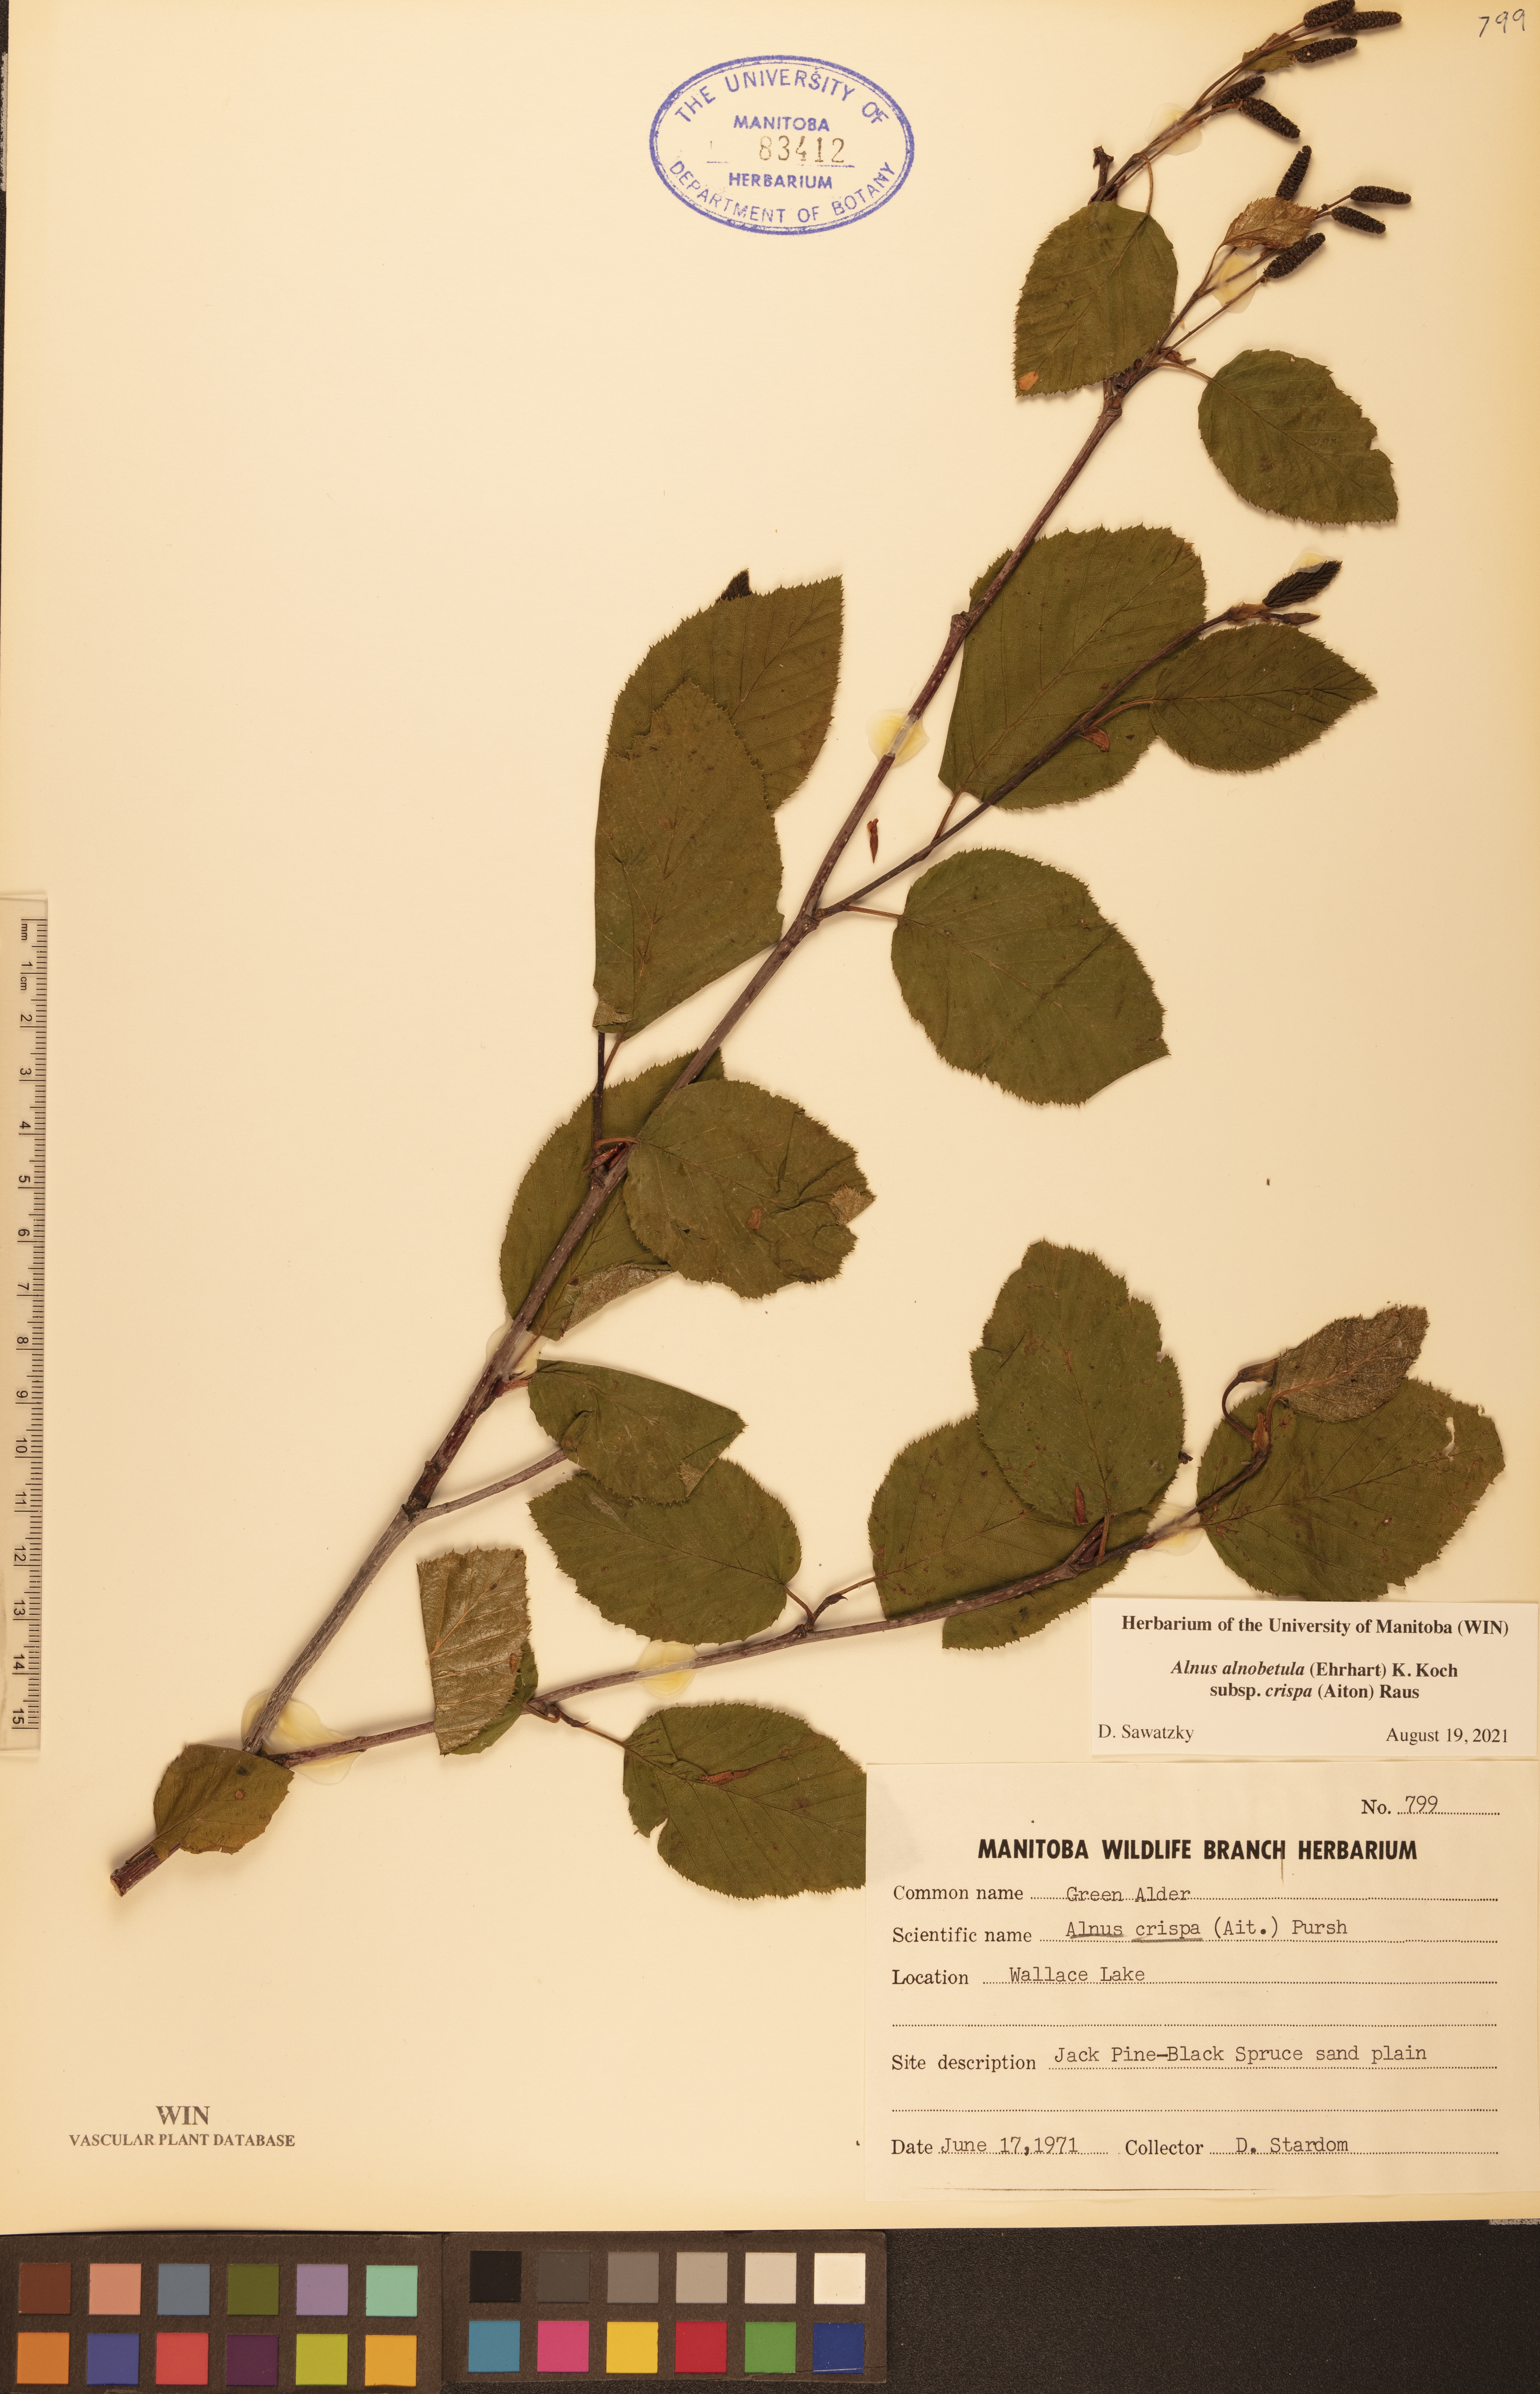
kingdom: Plantae
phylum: Tracheophyta
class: Magnoliopsida
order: Fagales
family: Betulaceae
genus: Alnus
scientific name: Alnus alnobetula
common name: Green alder
